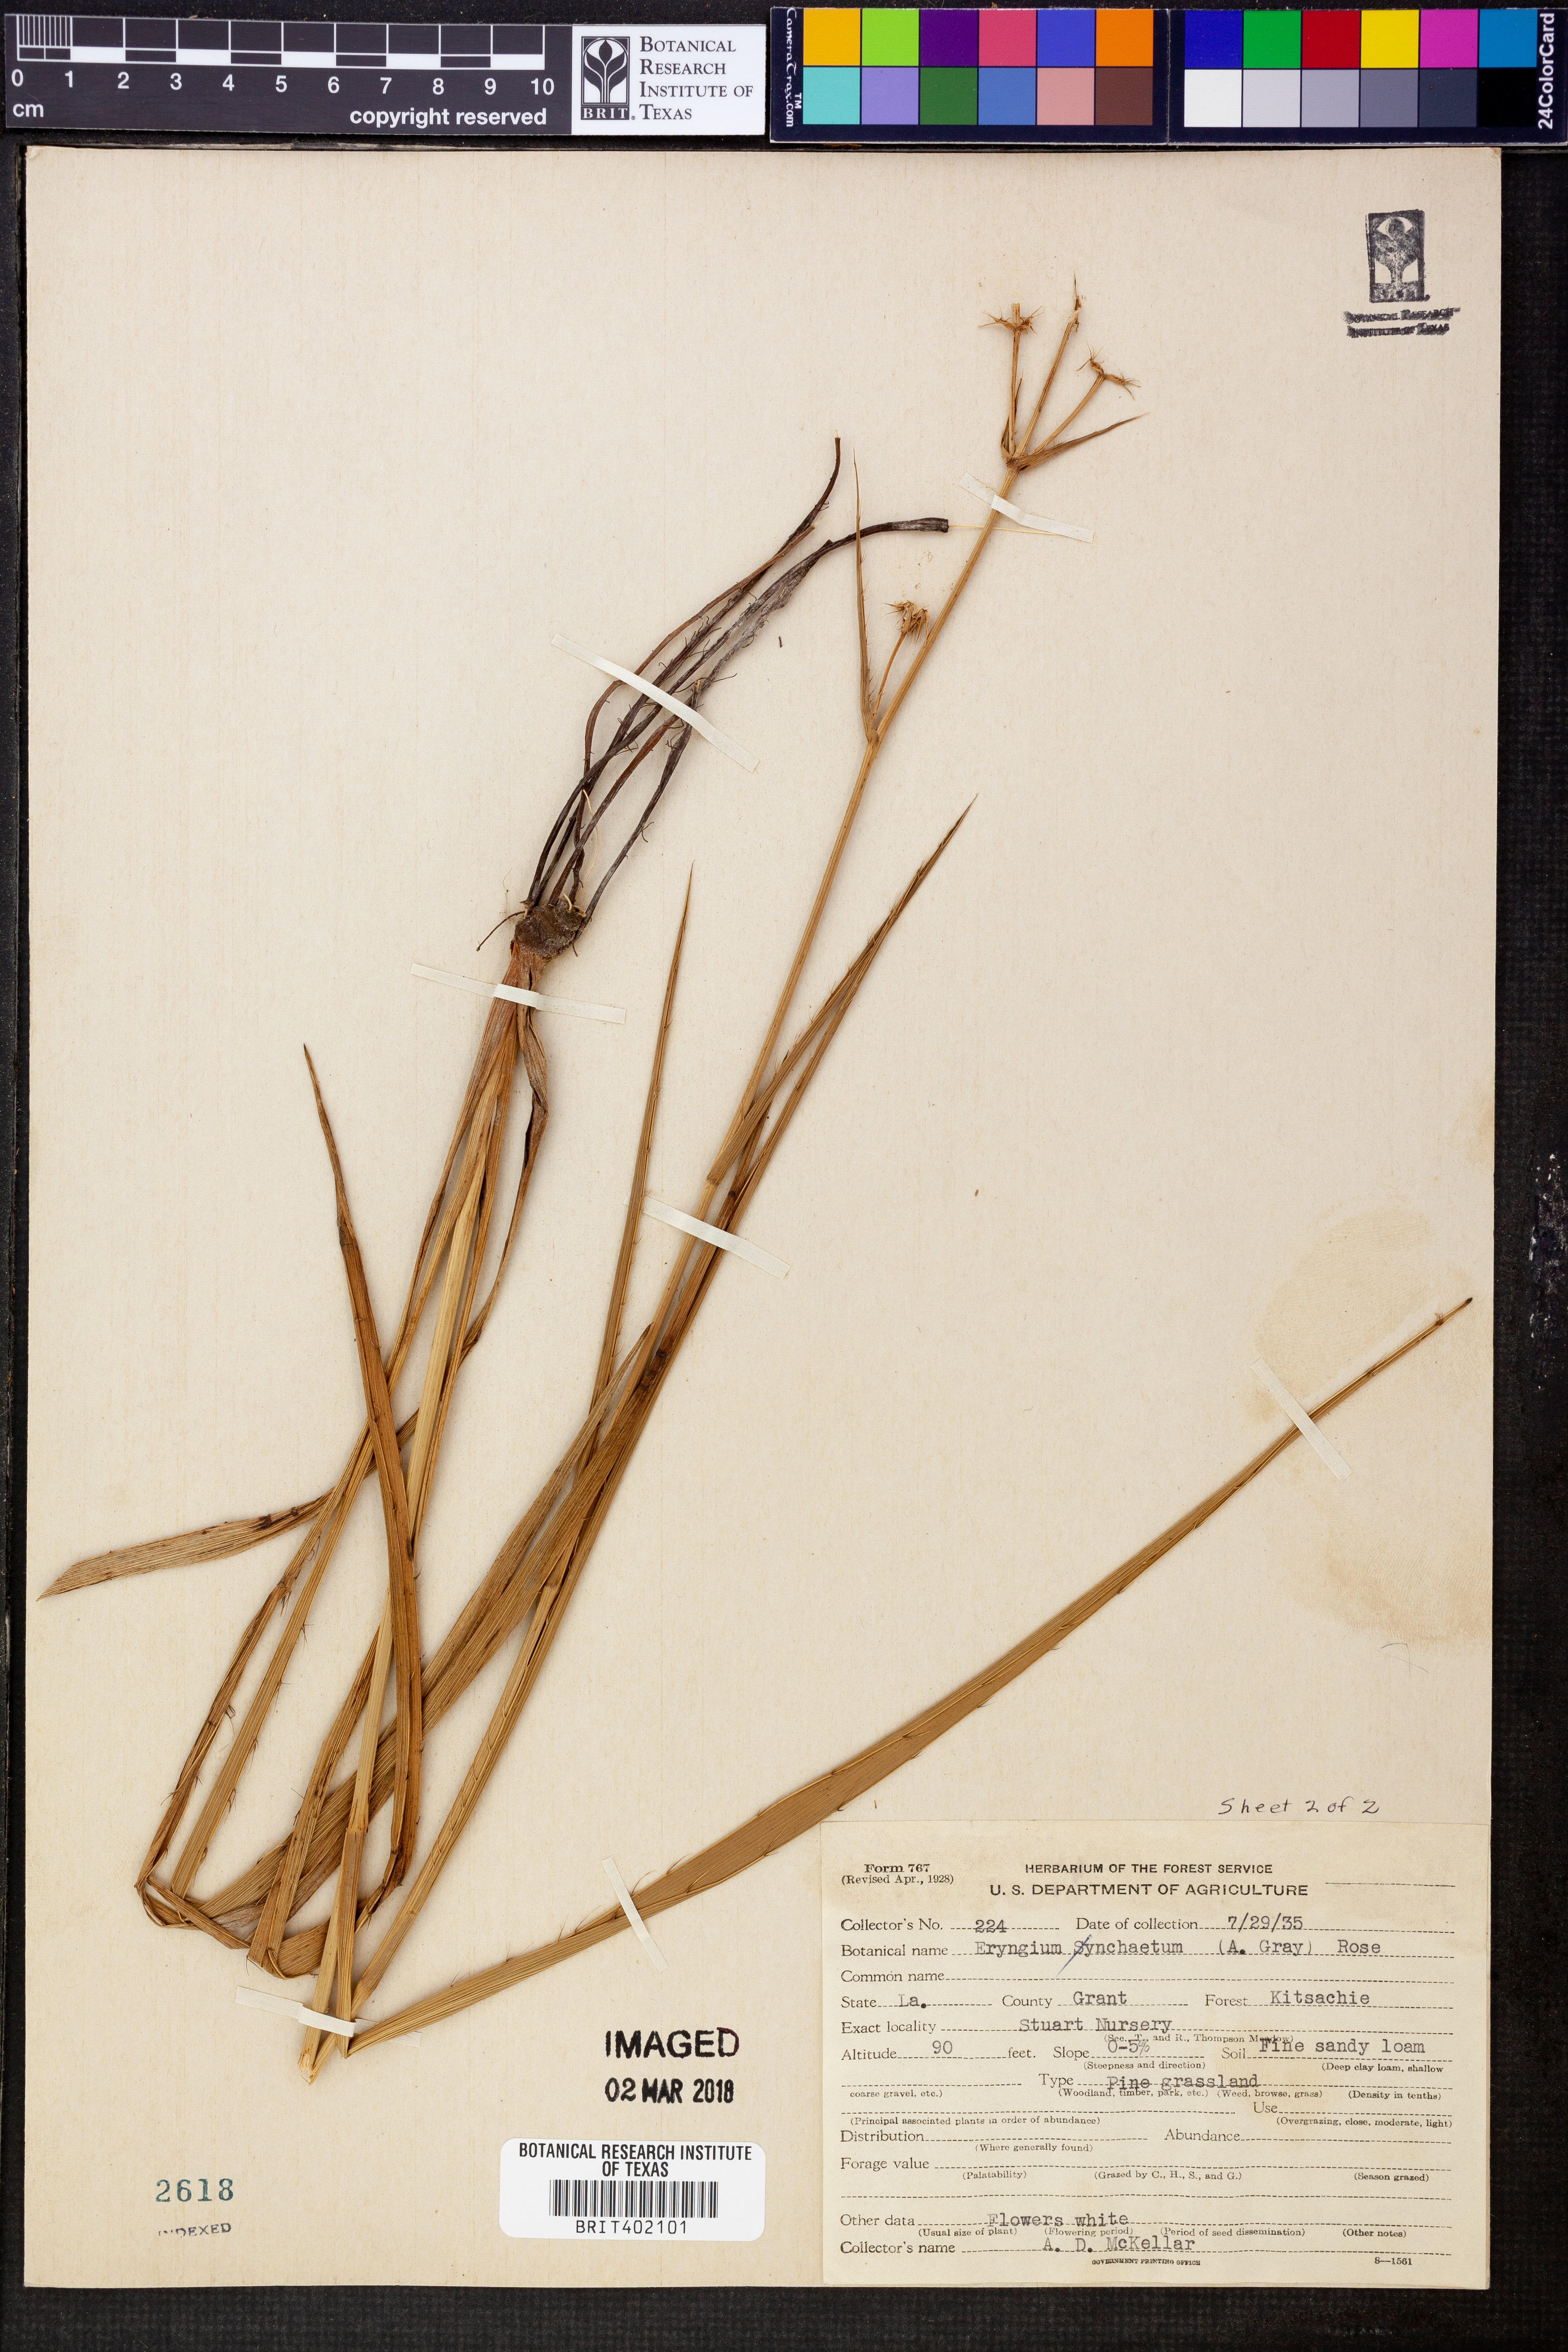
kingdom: Plantae
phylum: Tracheophyta
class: Magnoliopsida
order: Apiales
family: Apiaceae
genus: Eryngium
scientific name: Eryngium
